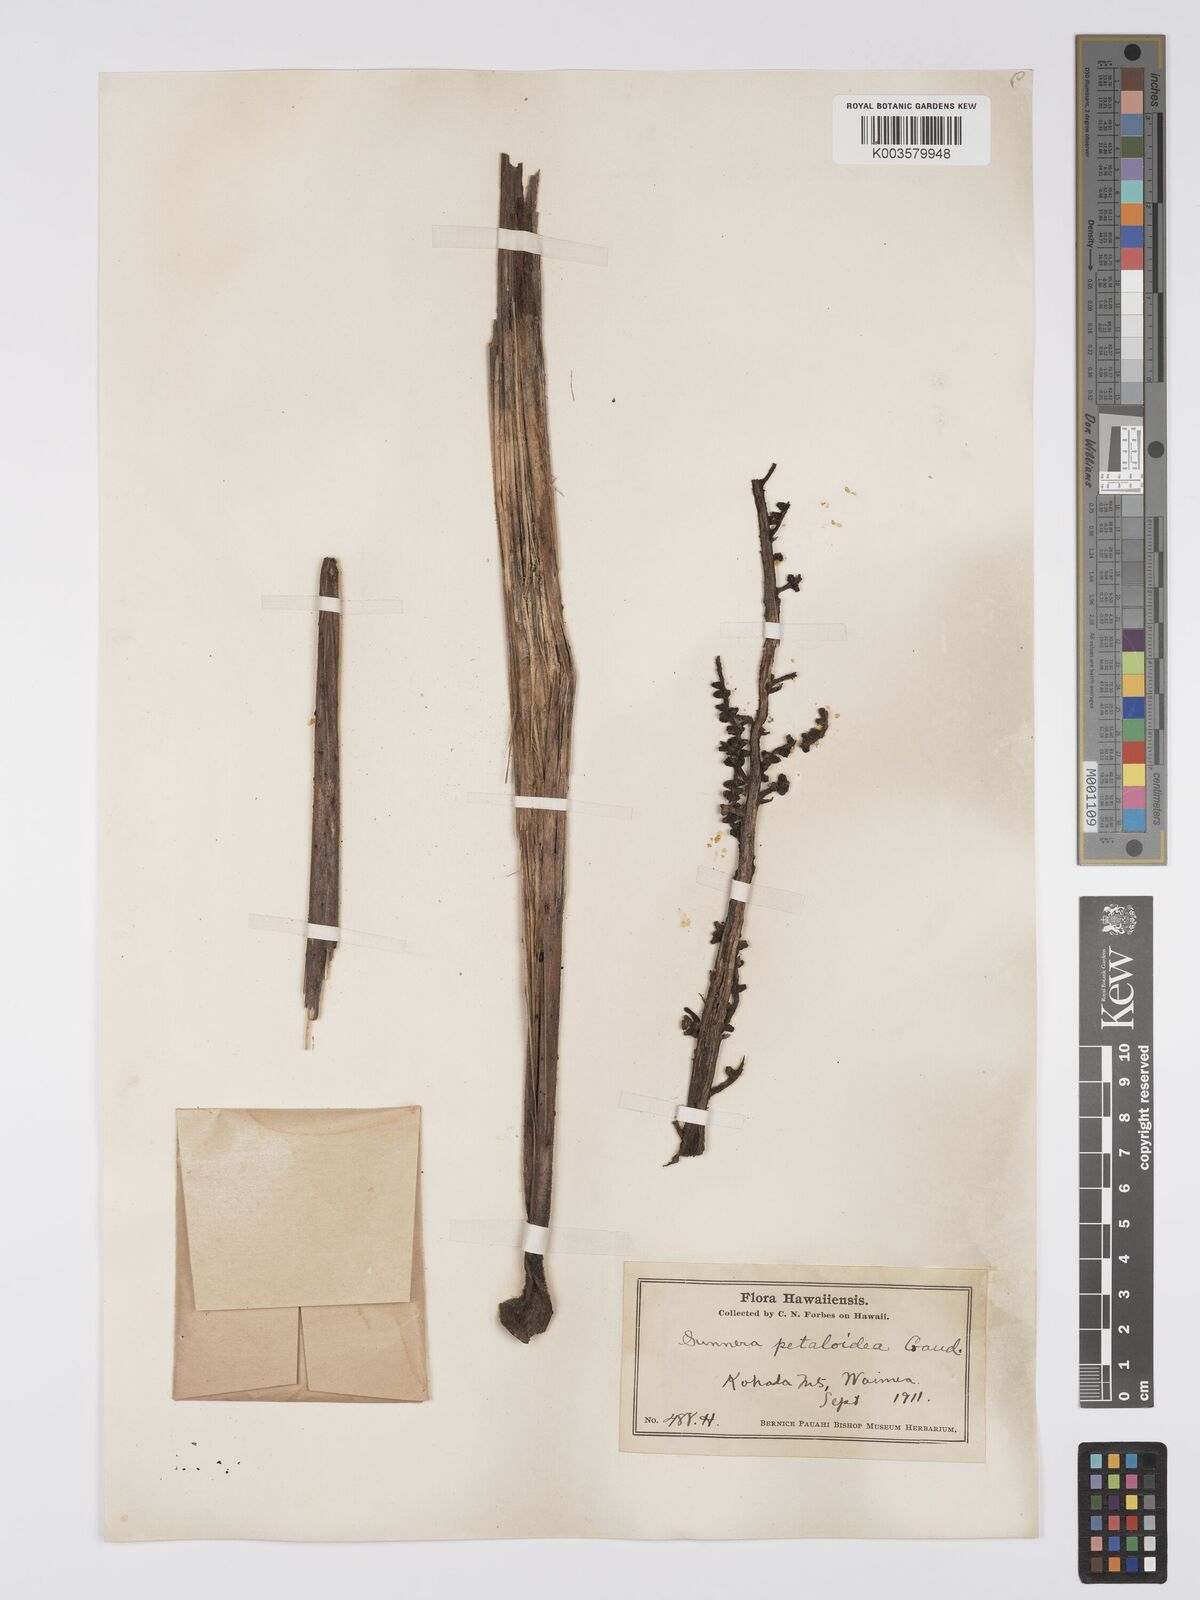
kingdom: Plantae
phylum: Tracheophyta
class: Magnoliopsida
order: Gunnerales
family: Gunneraceae
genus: Gunnera
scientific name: Gunnera petaloidea
